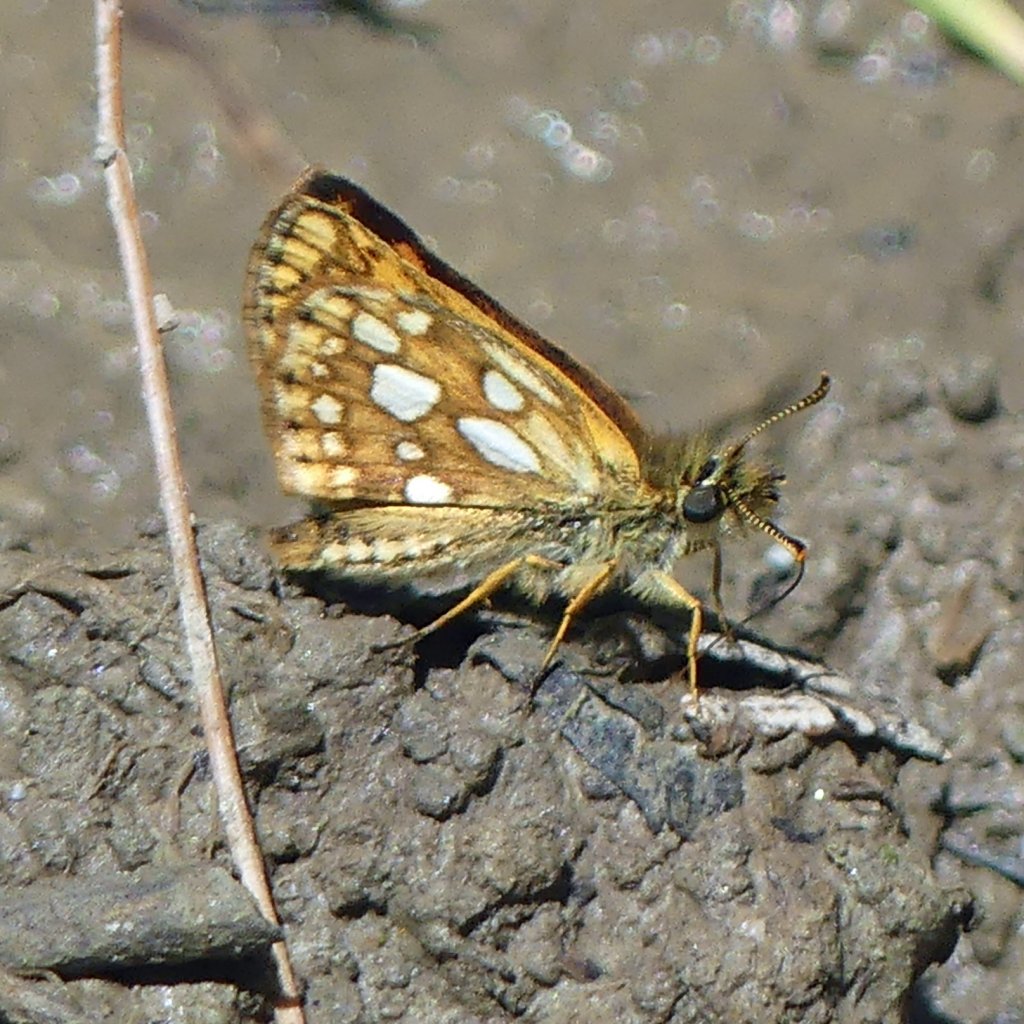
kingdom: Animalia
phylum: Arthropoda
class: Insecta
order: Lepidoptera
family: Hesperiidae
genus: Carterocephalus
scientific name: Carterocephalus palaemon
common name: Chequered Skipper
